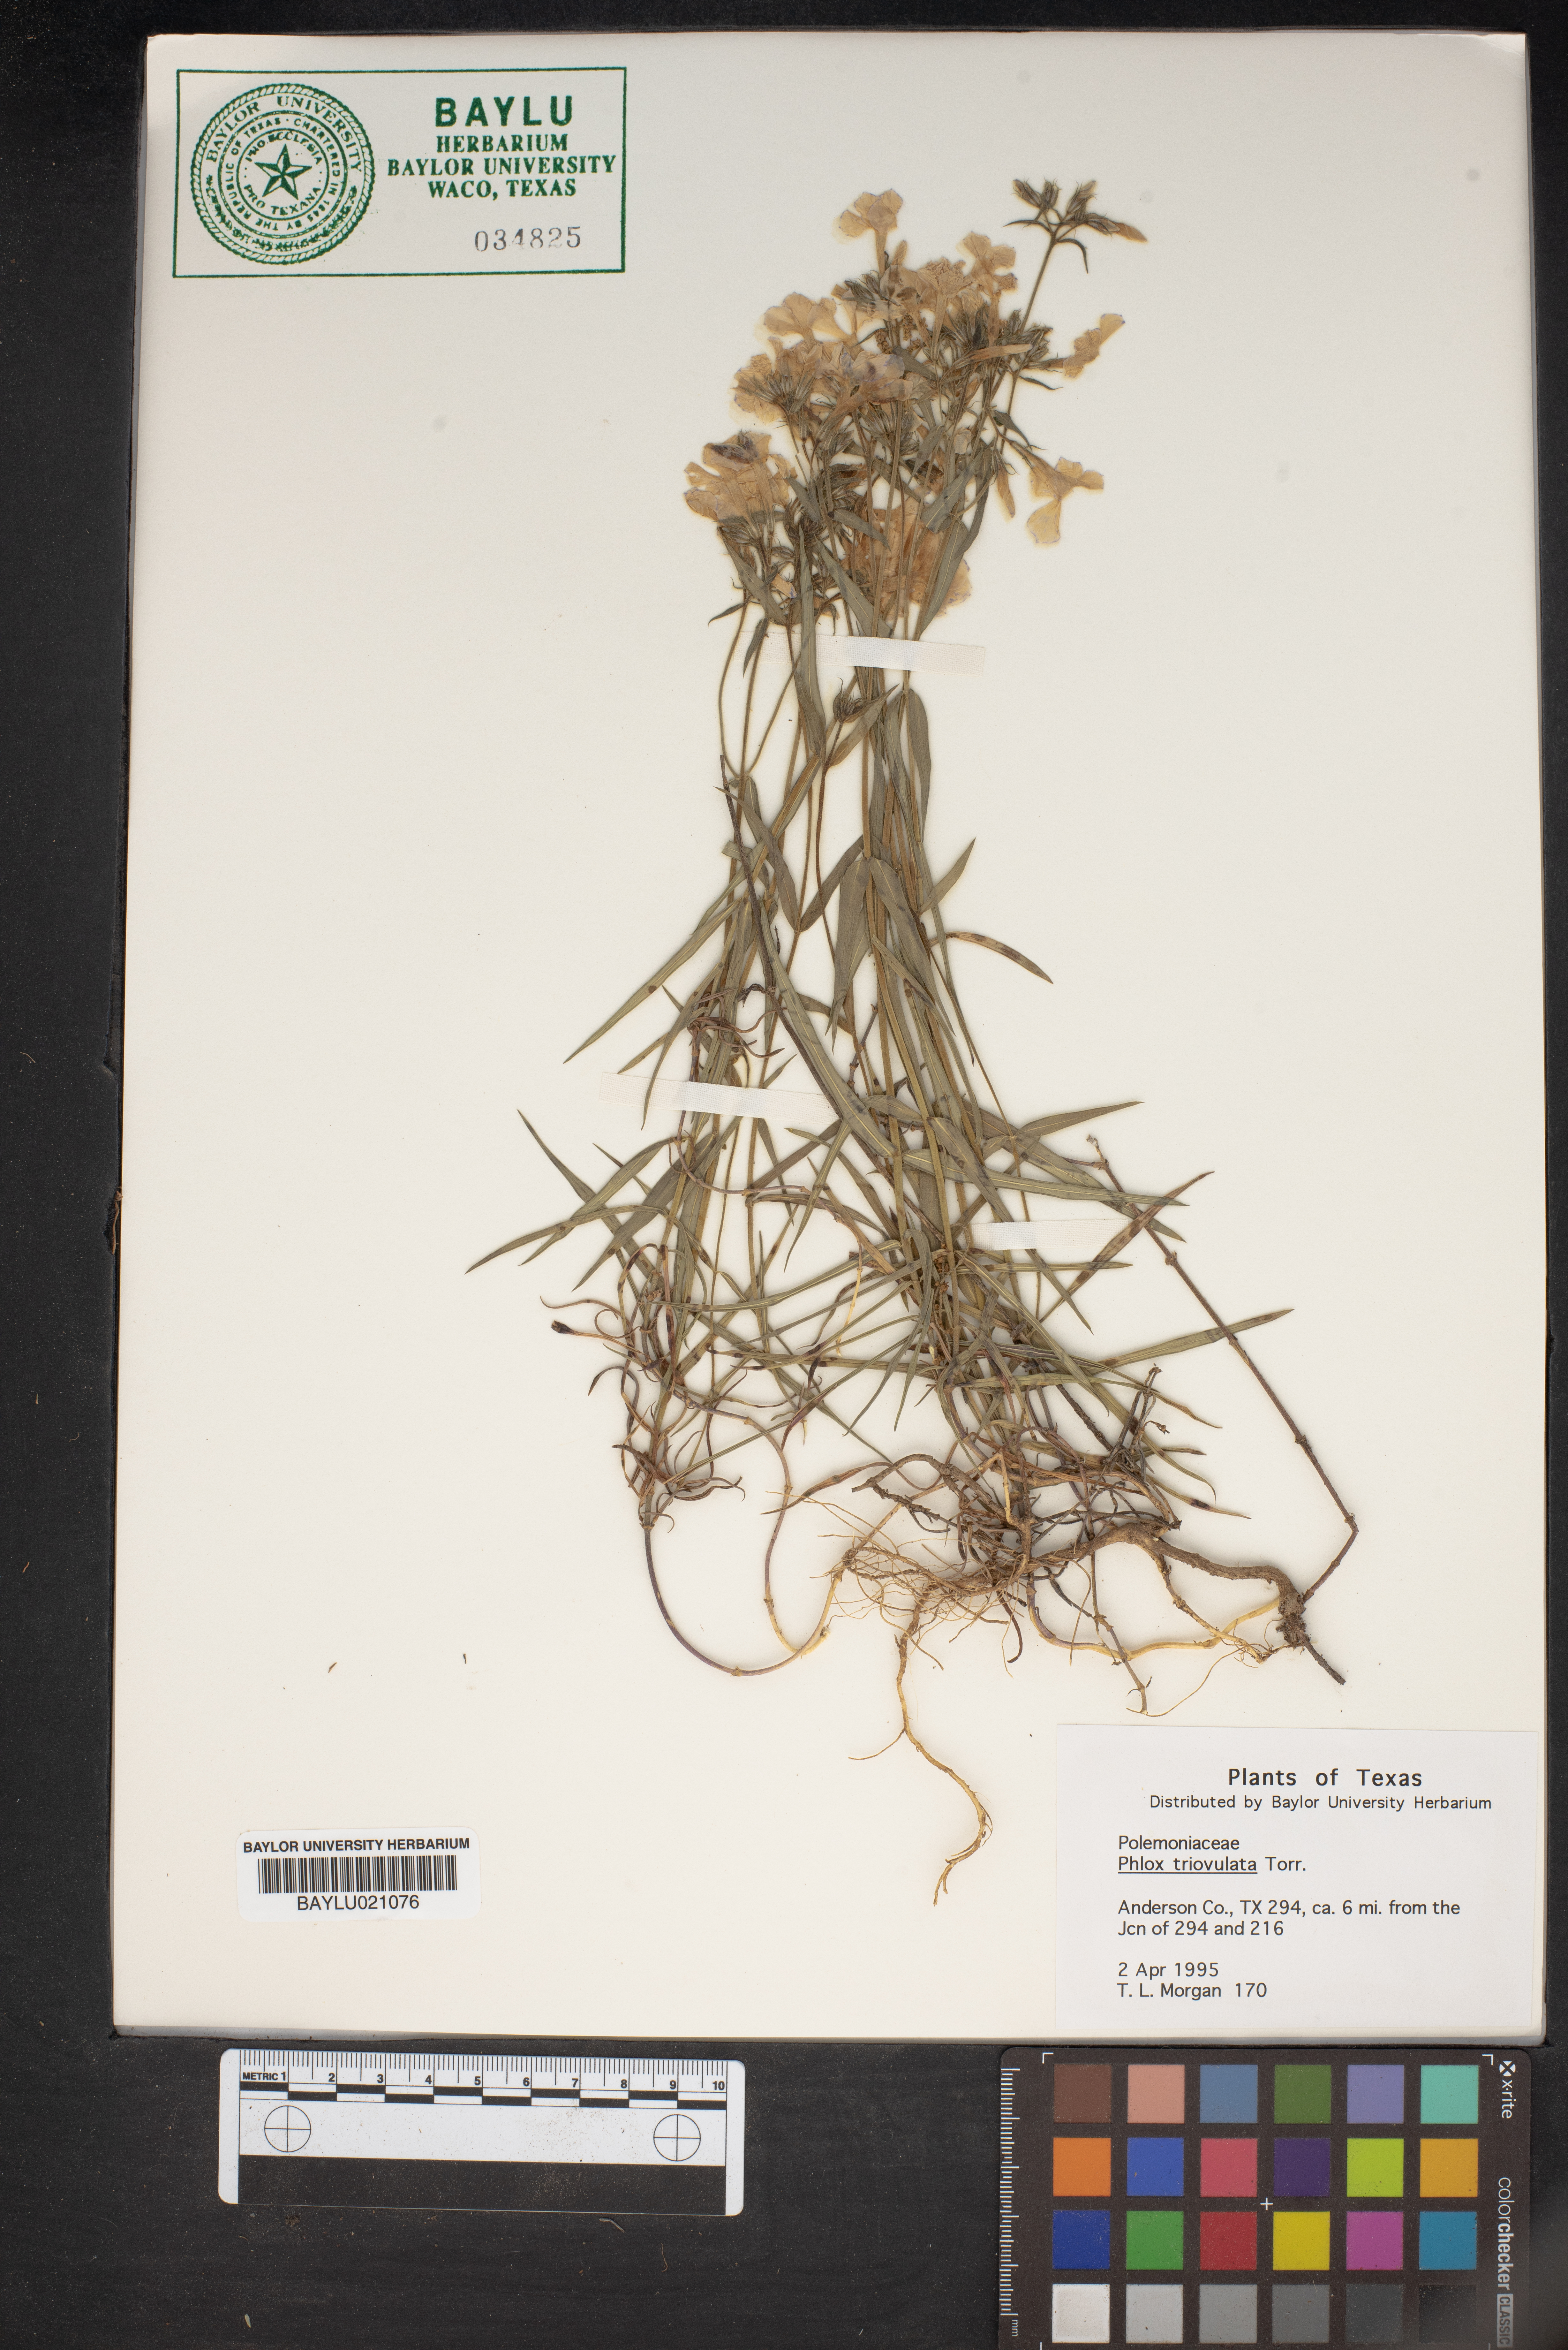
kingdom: Plantae
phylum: Tracheophyta
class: Magnoliopsida
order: Ericales
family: Polemoniaceae
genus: Phlox
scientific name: Phlox triovulata
